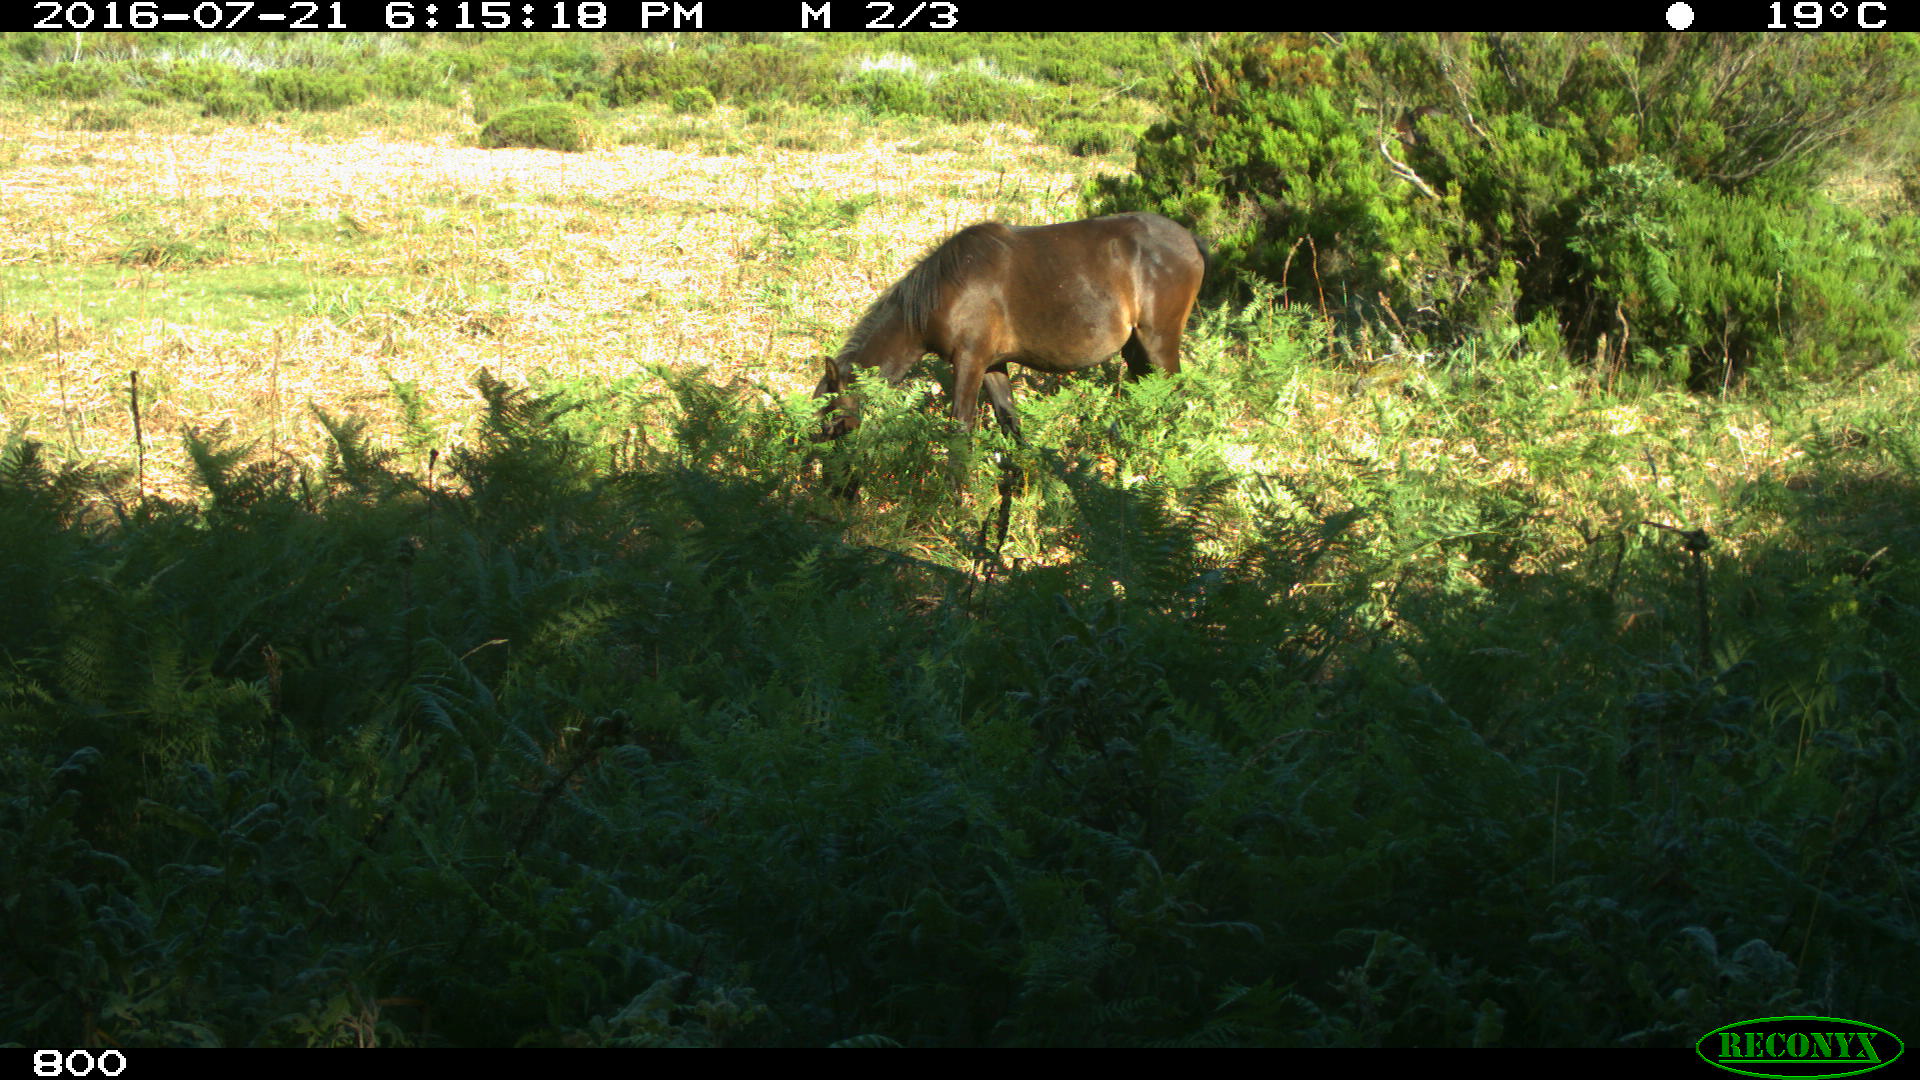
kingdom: Animalia
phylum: Chordata
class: Mammalia
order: Perissodactyla
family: Equidae
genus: Equus
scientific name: Equus caballus
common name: Horse
